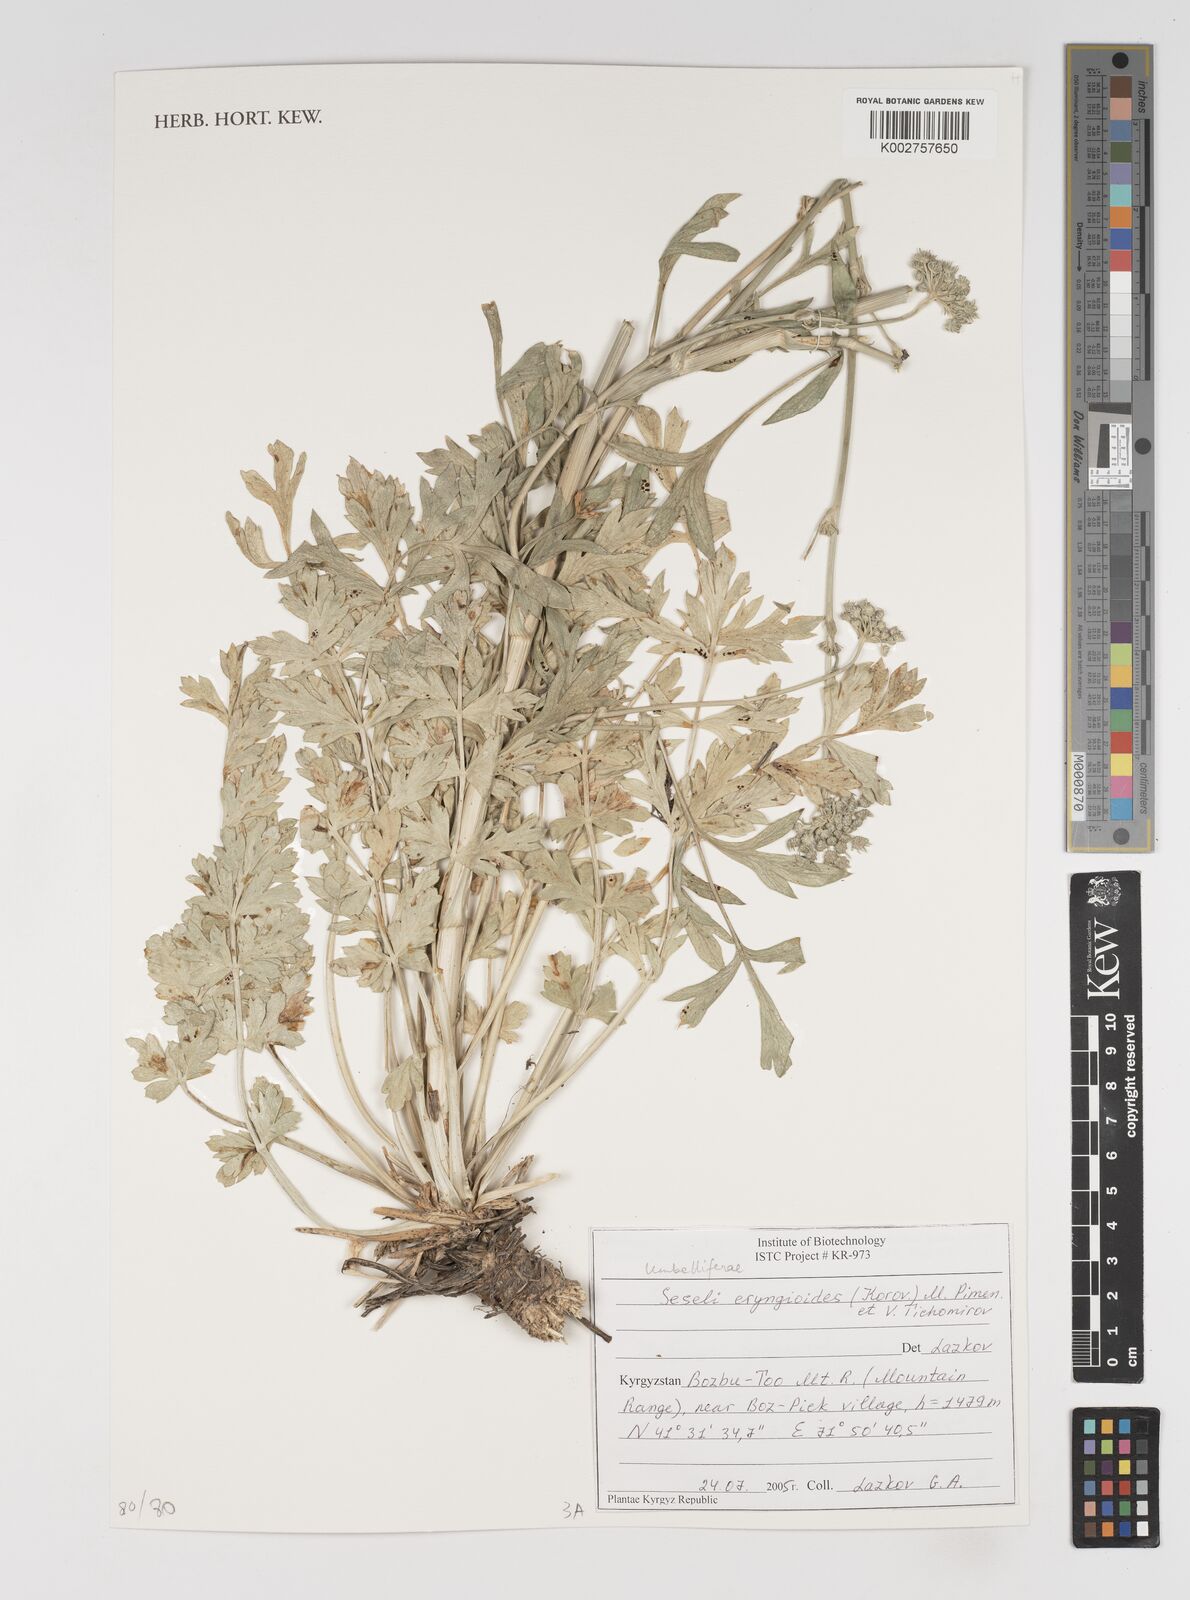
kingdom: Plantae
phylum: Tracheophyta
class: Magnoliopsida
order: Apiales
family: Apiaceae
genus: Seseli
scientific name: Seseli eryngioides
